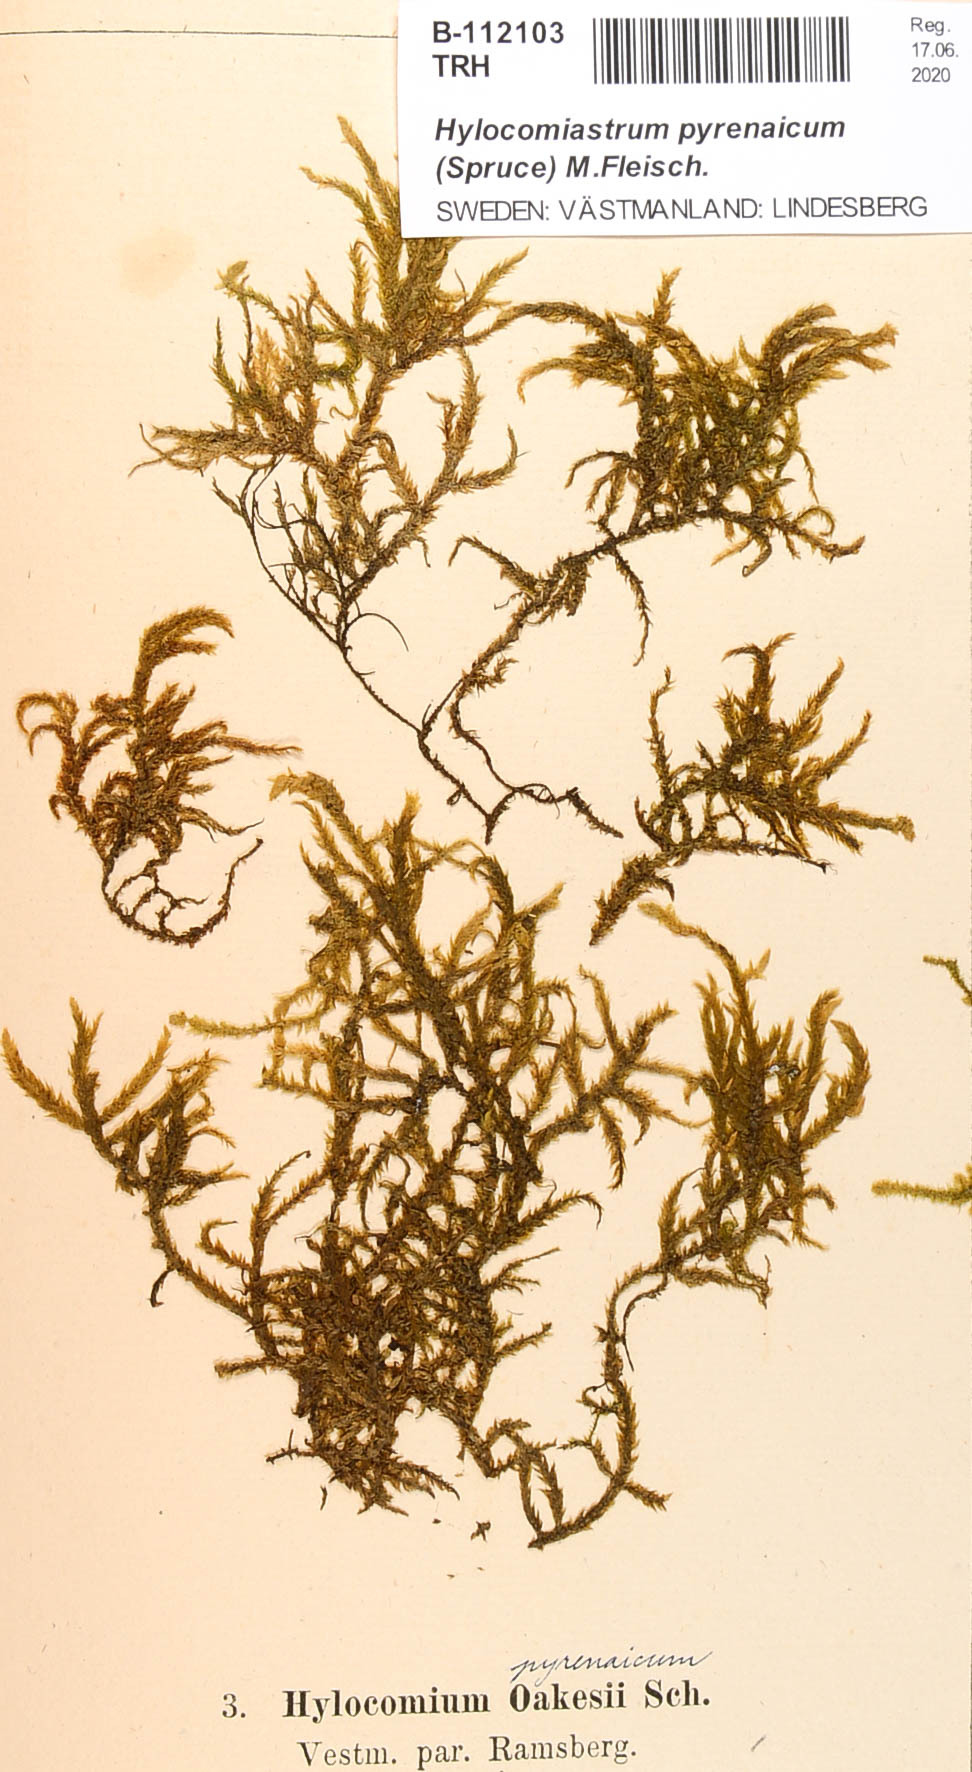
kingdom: Plantae
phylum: Bryophyta
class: Bryopsida
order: Hypnales
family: Hylocomiaceae
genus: Hylocomiastrum
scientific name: Hylocomiastrum pyrenaicum
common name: Oake s wood moss
